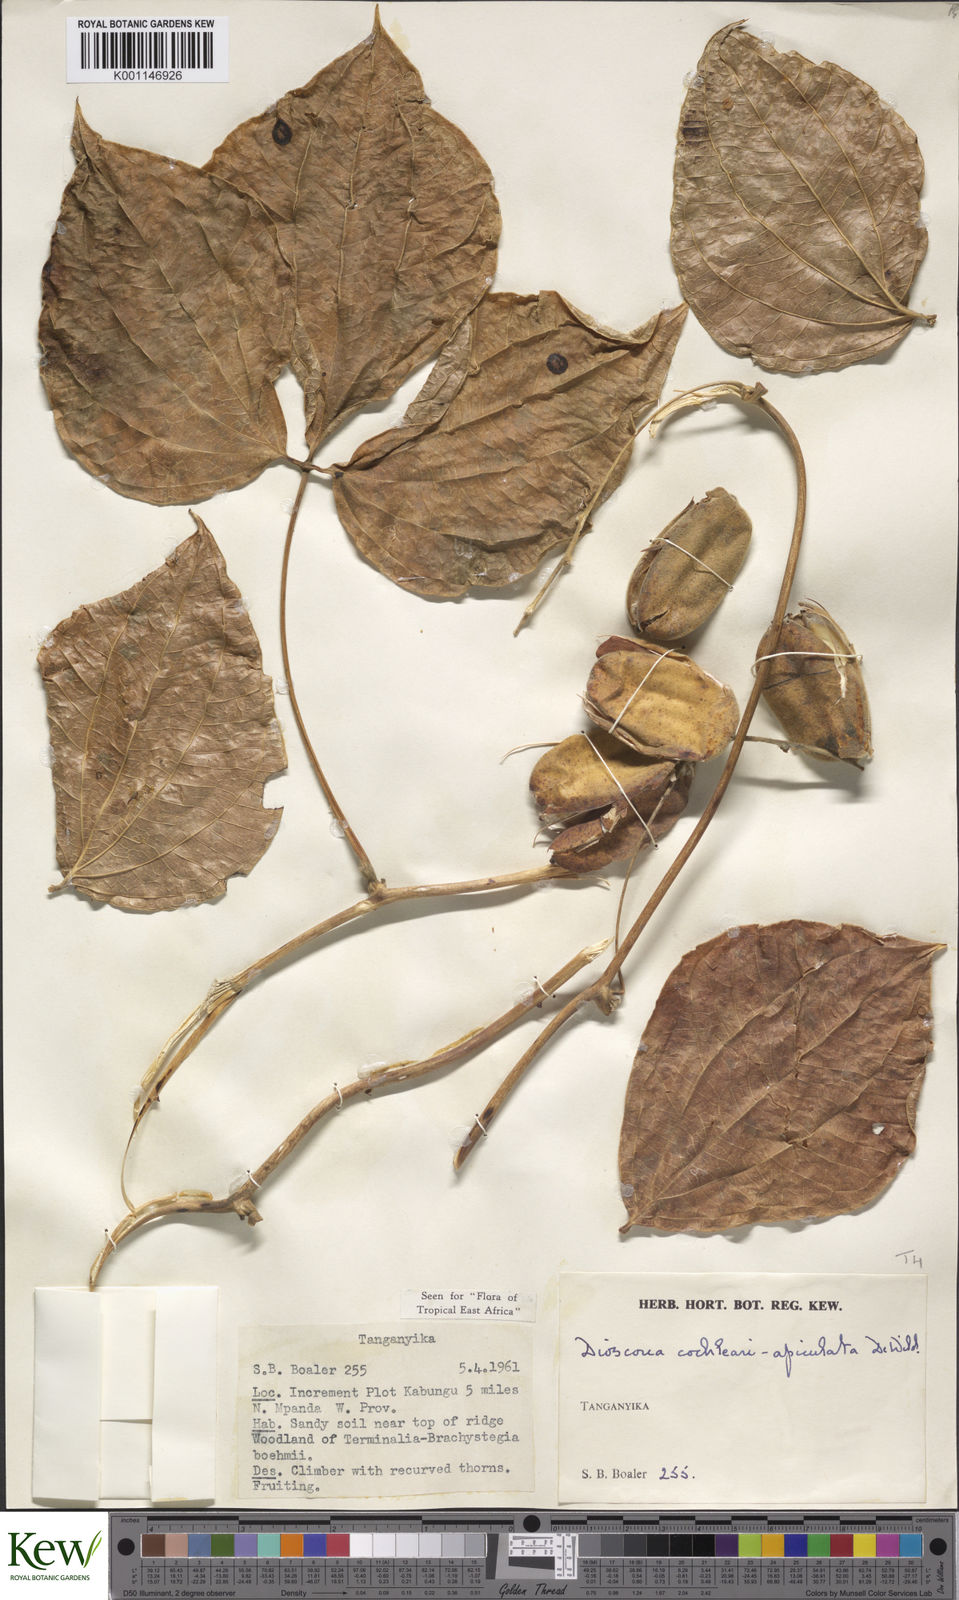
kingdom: Plantae
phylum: Tracheophyta
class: Liliopsida
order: Dioscoreales
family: Dioscoreaceae
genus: Dioscorea
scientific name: Dioscorea cochleariapiculata
